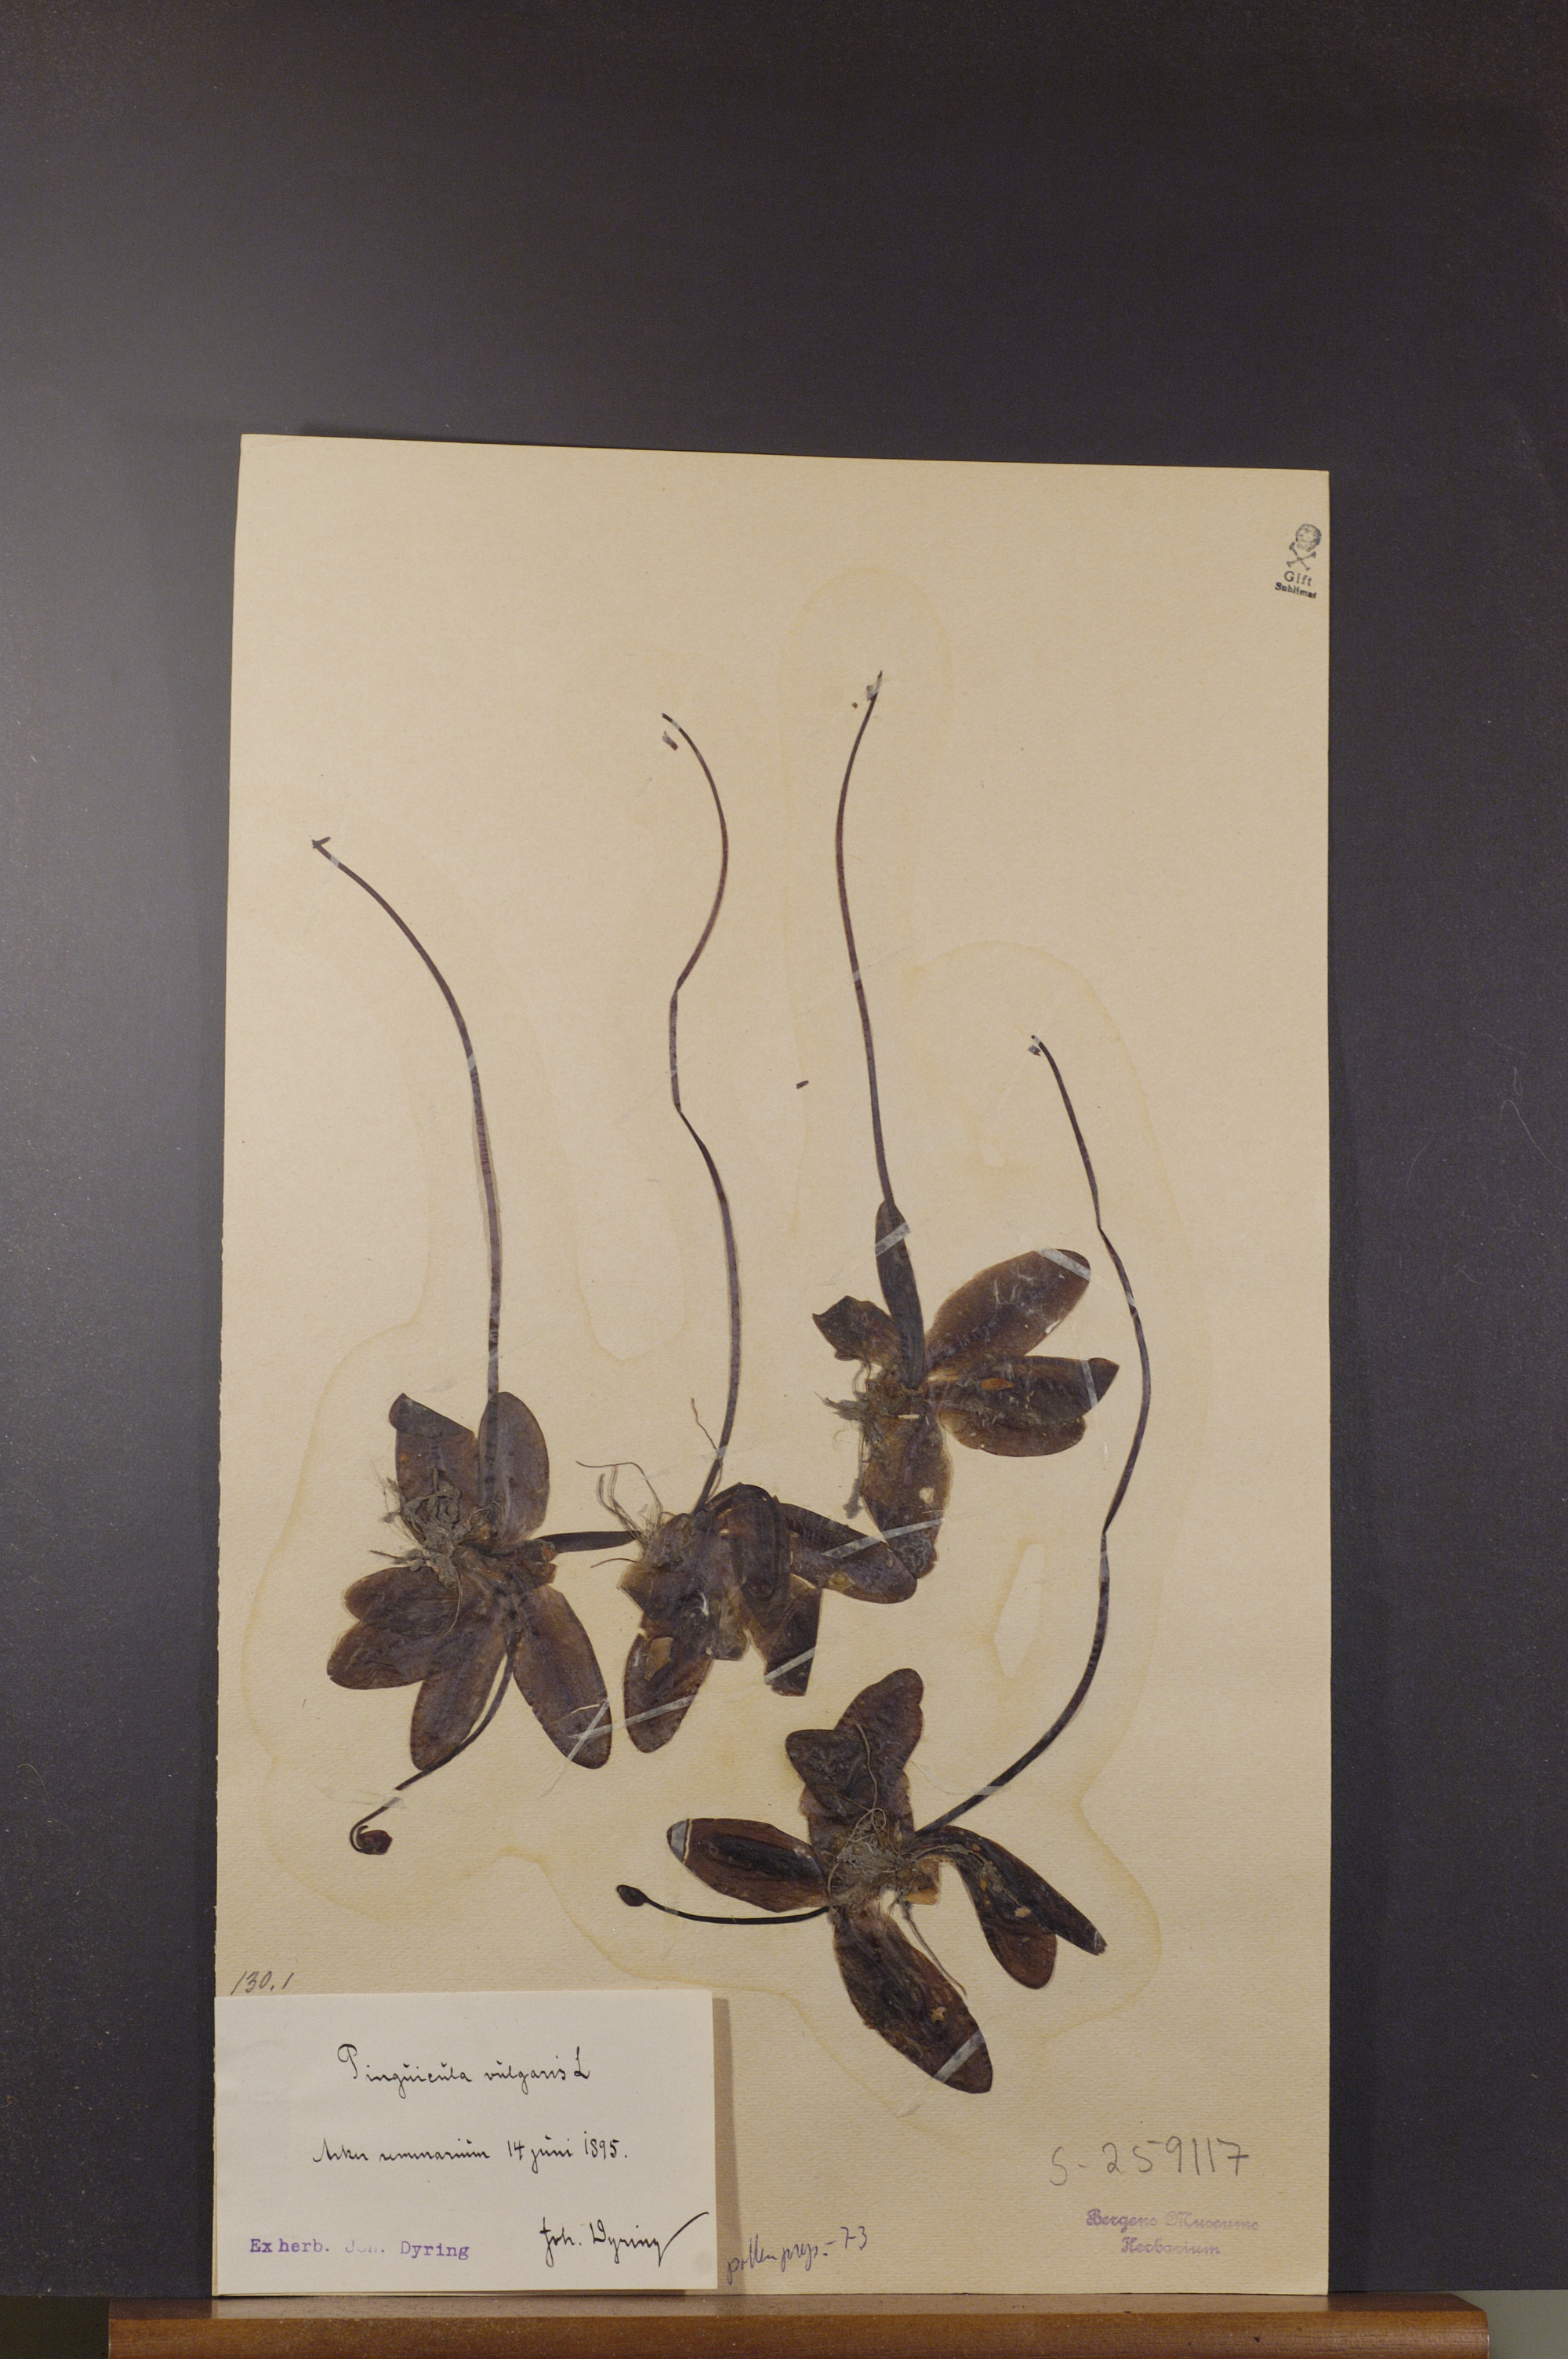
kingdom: Plantae
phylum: Tracheophyta
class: Magnoliopsida
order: Lamiales
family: Lentibulariaceae
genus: Pinguicula
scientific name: Pinguicula vulgaris
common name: Common butterwort
